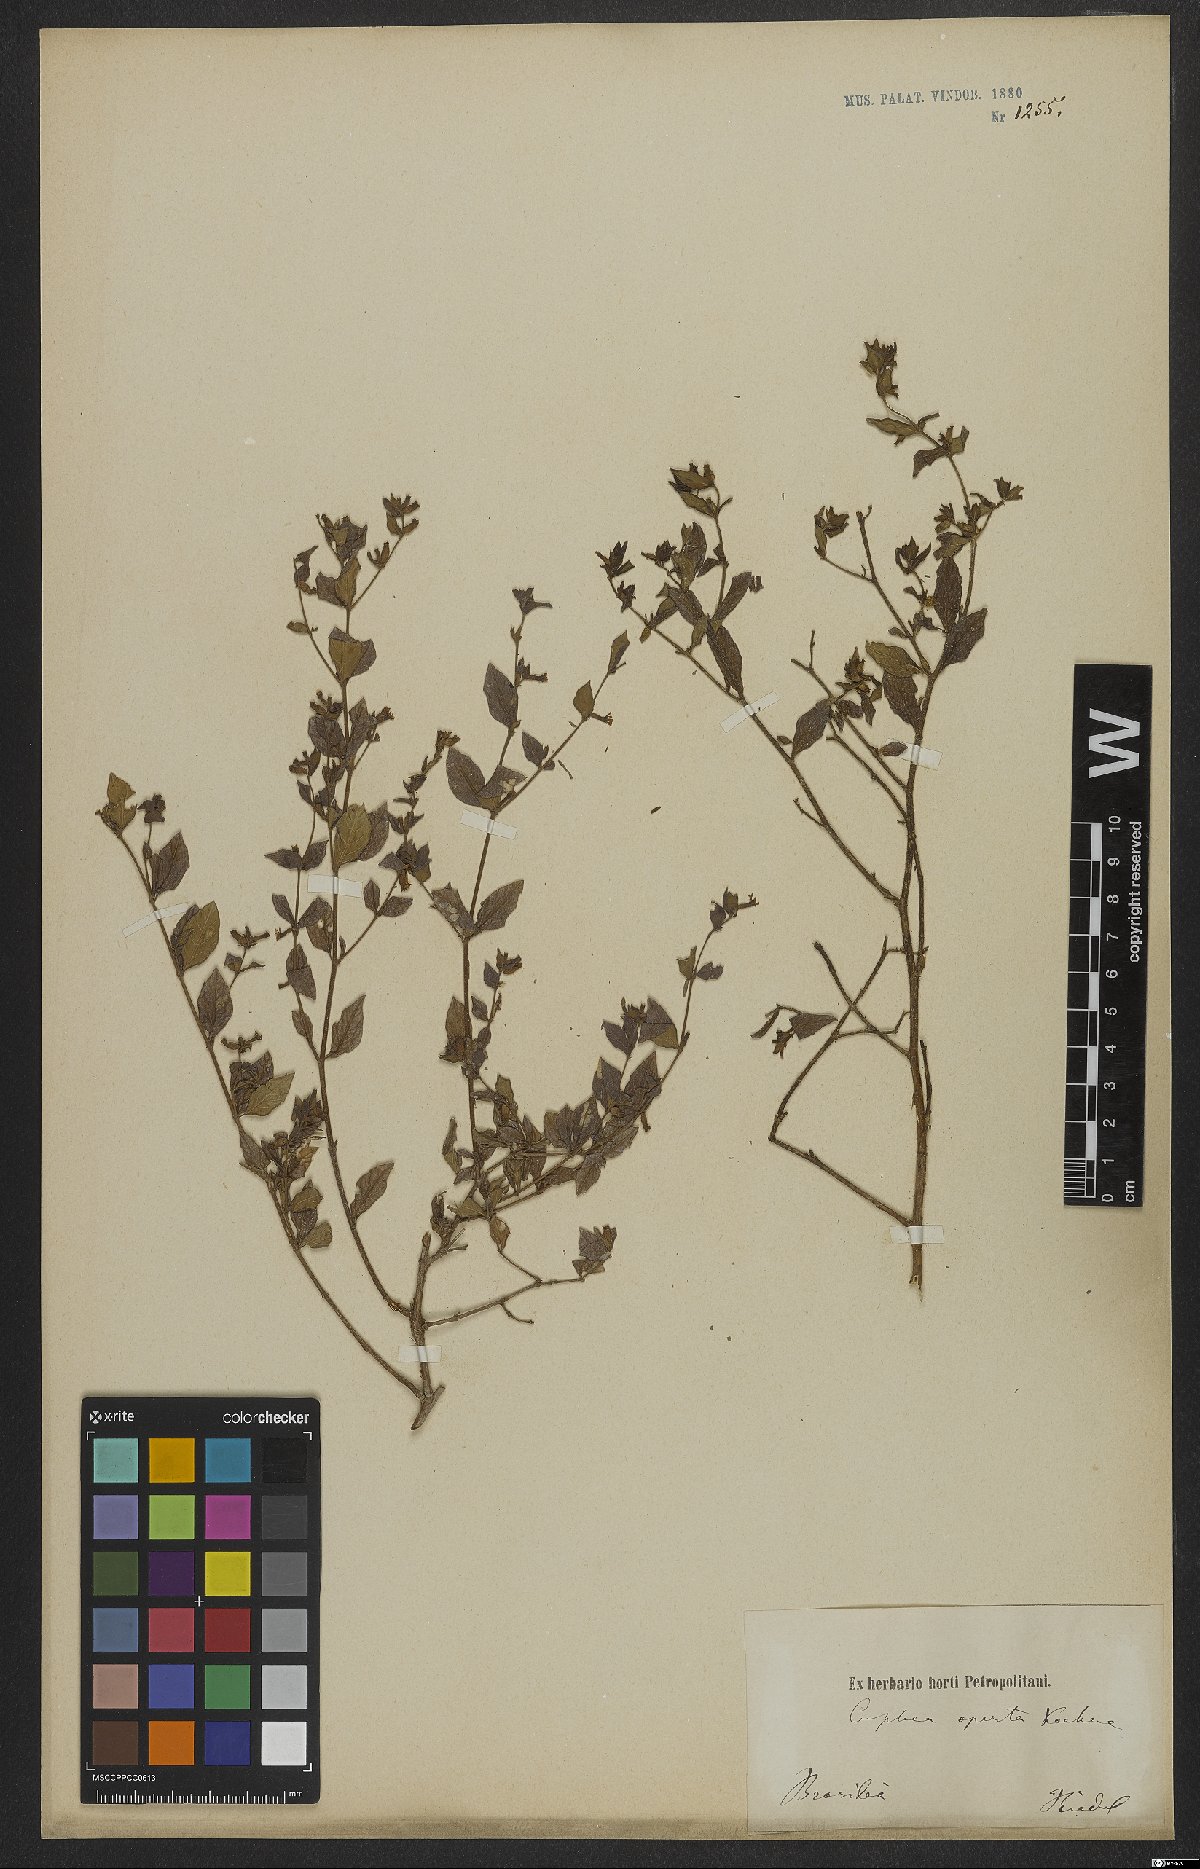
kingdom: Plantae
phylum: Tracheophyta
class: Magnoliopsida
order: Myrtales
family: Lythraceae
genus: Cuphea
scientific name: Cuphea aperta
